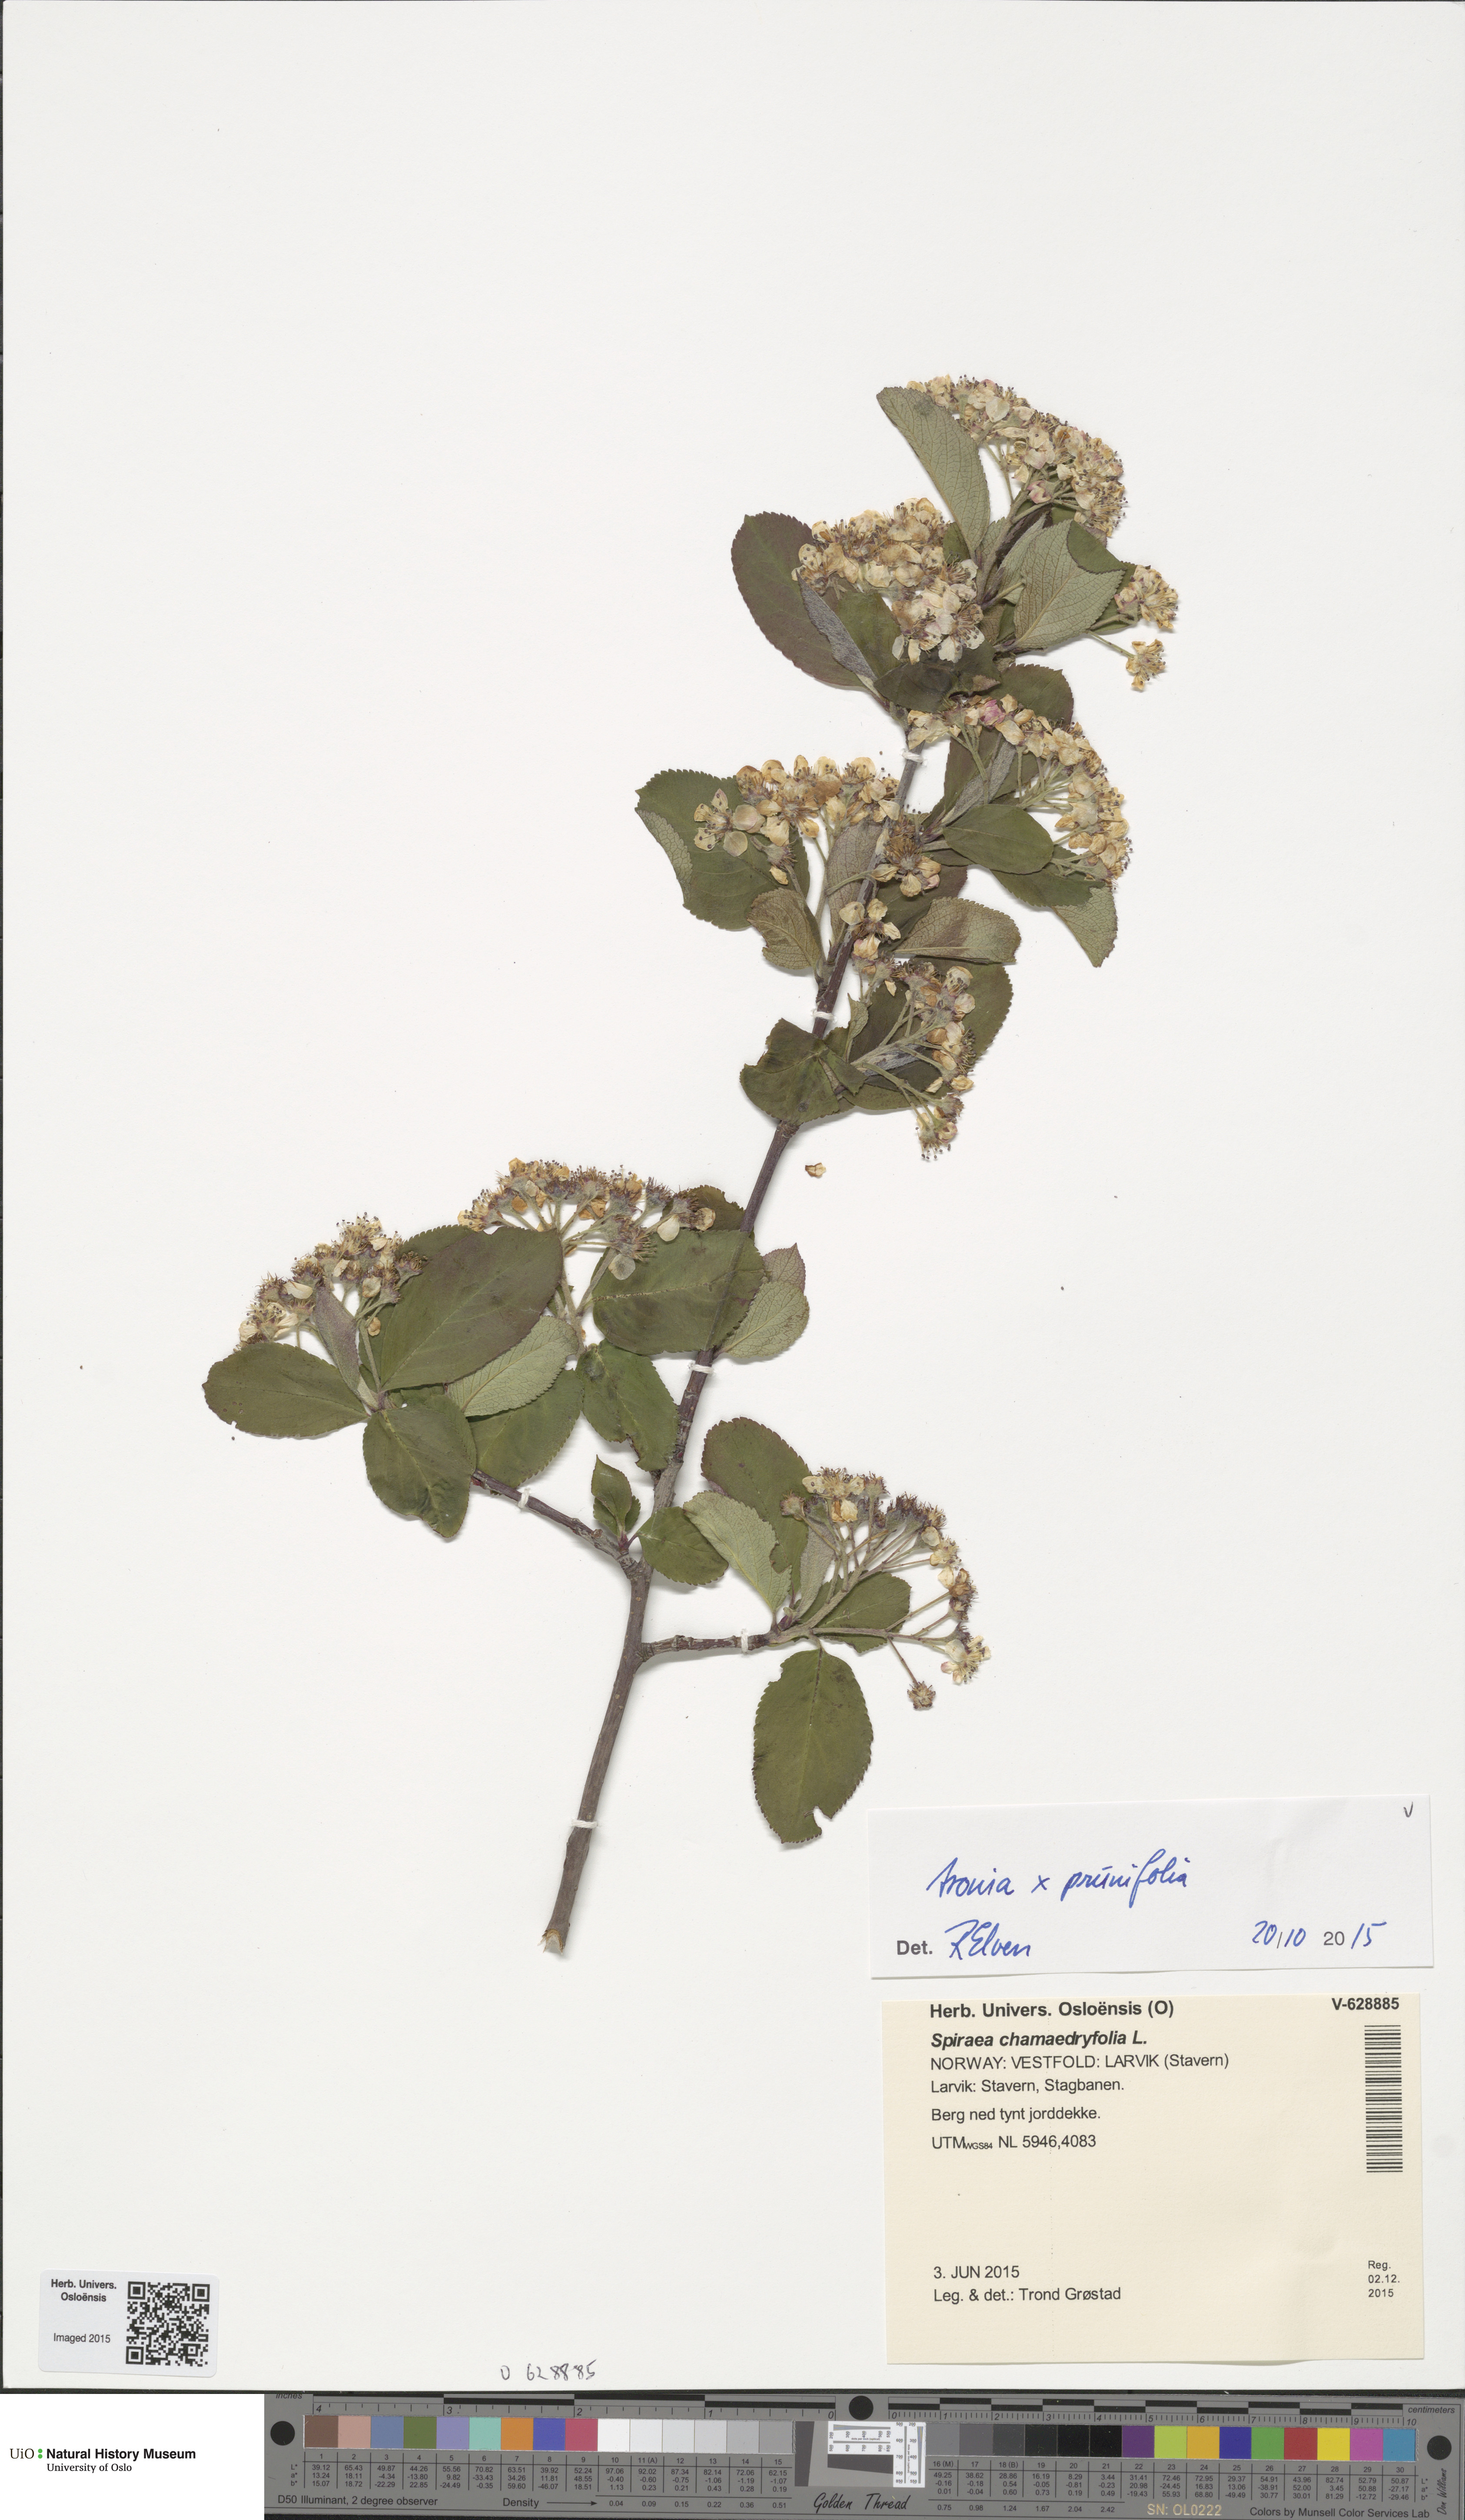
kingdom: Plantae
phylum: Tracheophyta
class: Magnoliopsida
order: Rosales
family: Rosaceae
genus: Sorbaronia
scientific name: Sorbaronia arsenii
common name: Arsène's mountain-ash
